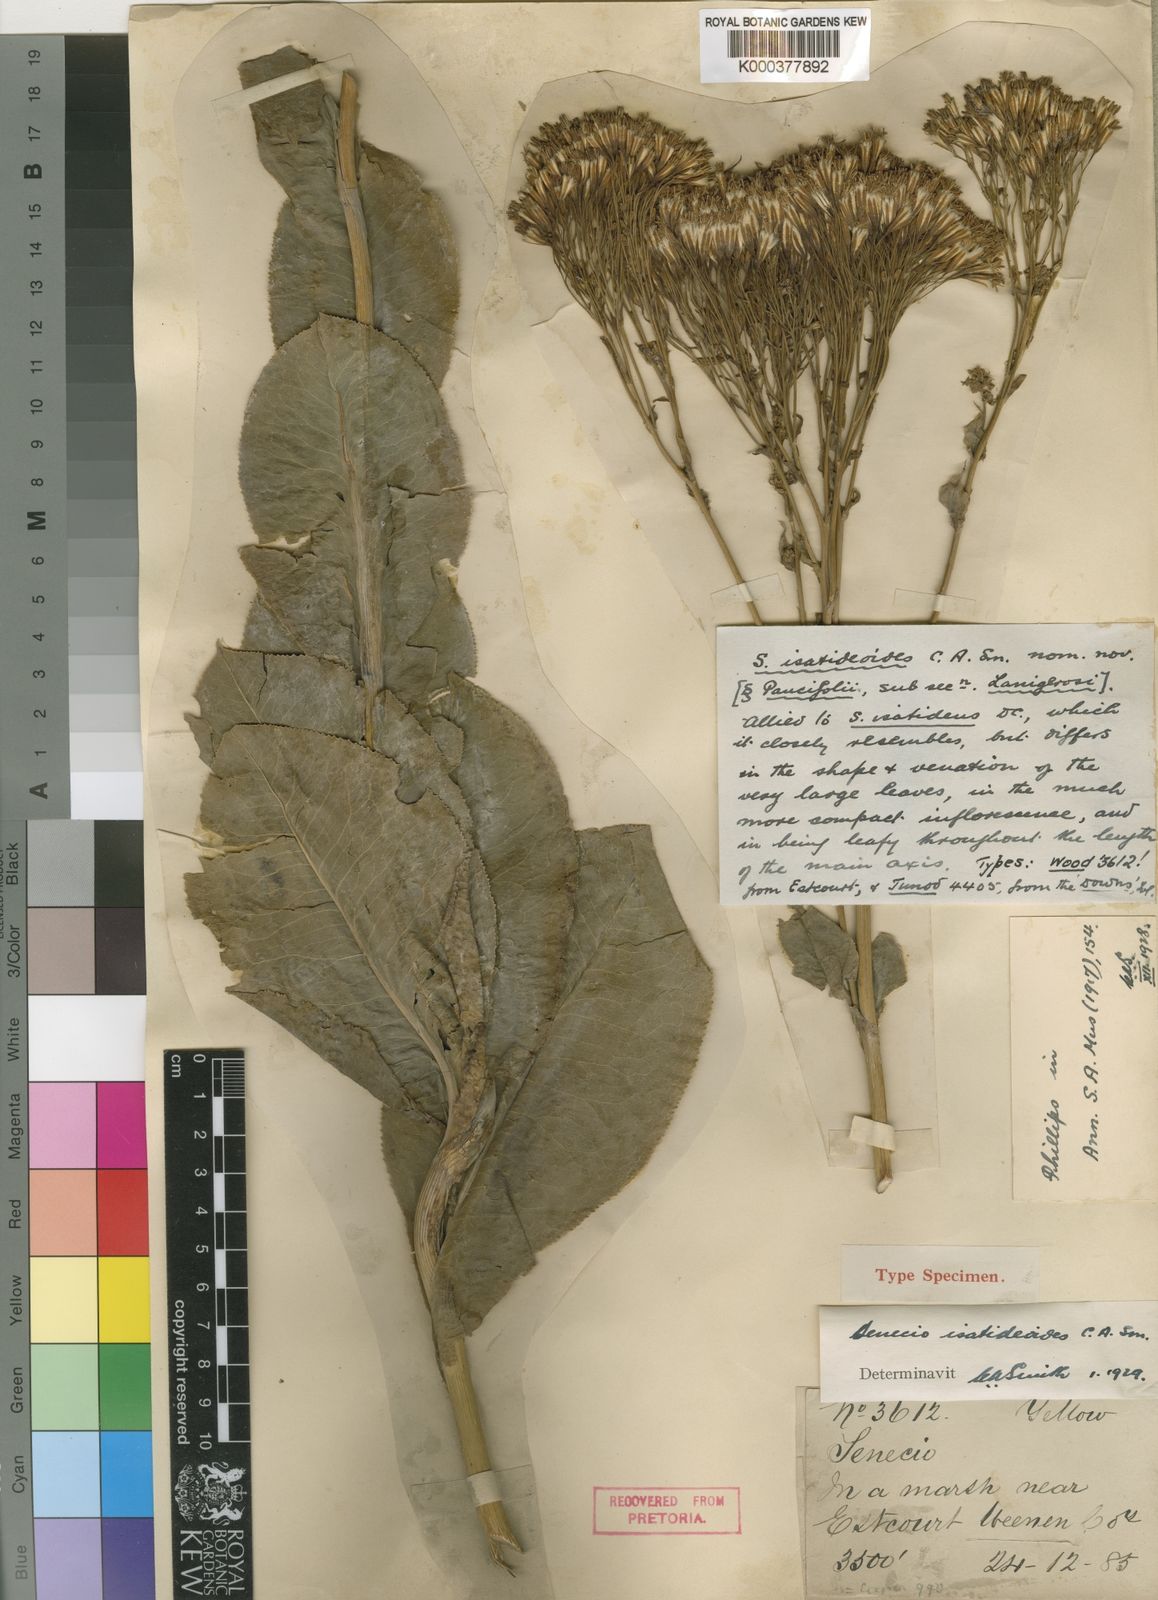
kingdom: Plantae
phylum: Tracheophyta
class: Magnoliopsida
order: Asterales
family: Asteraceae
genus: Senecio
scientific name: Senecio isatidoides
